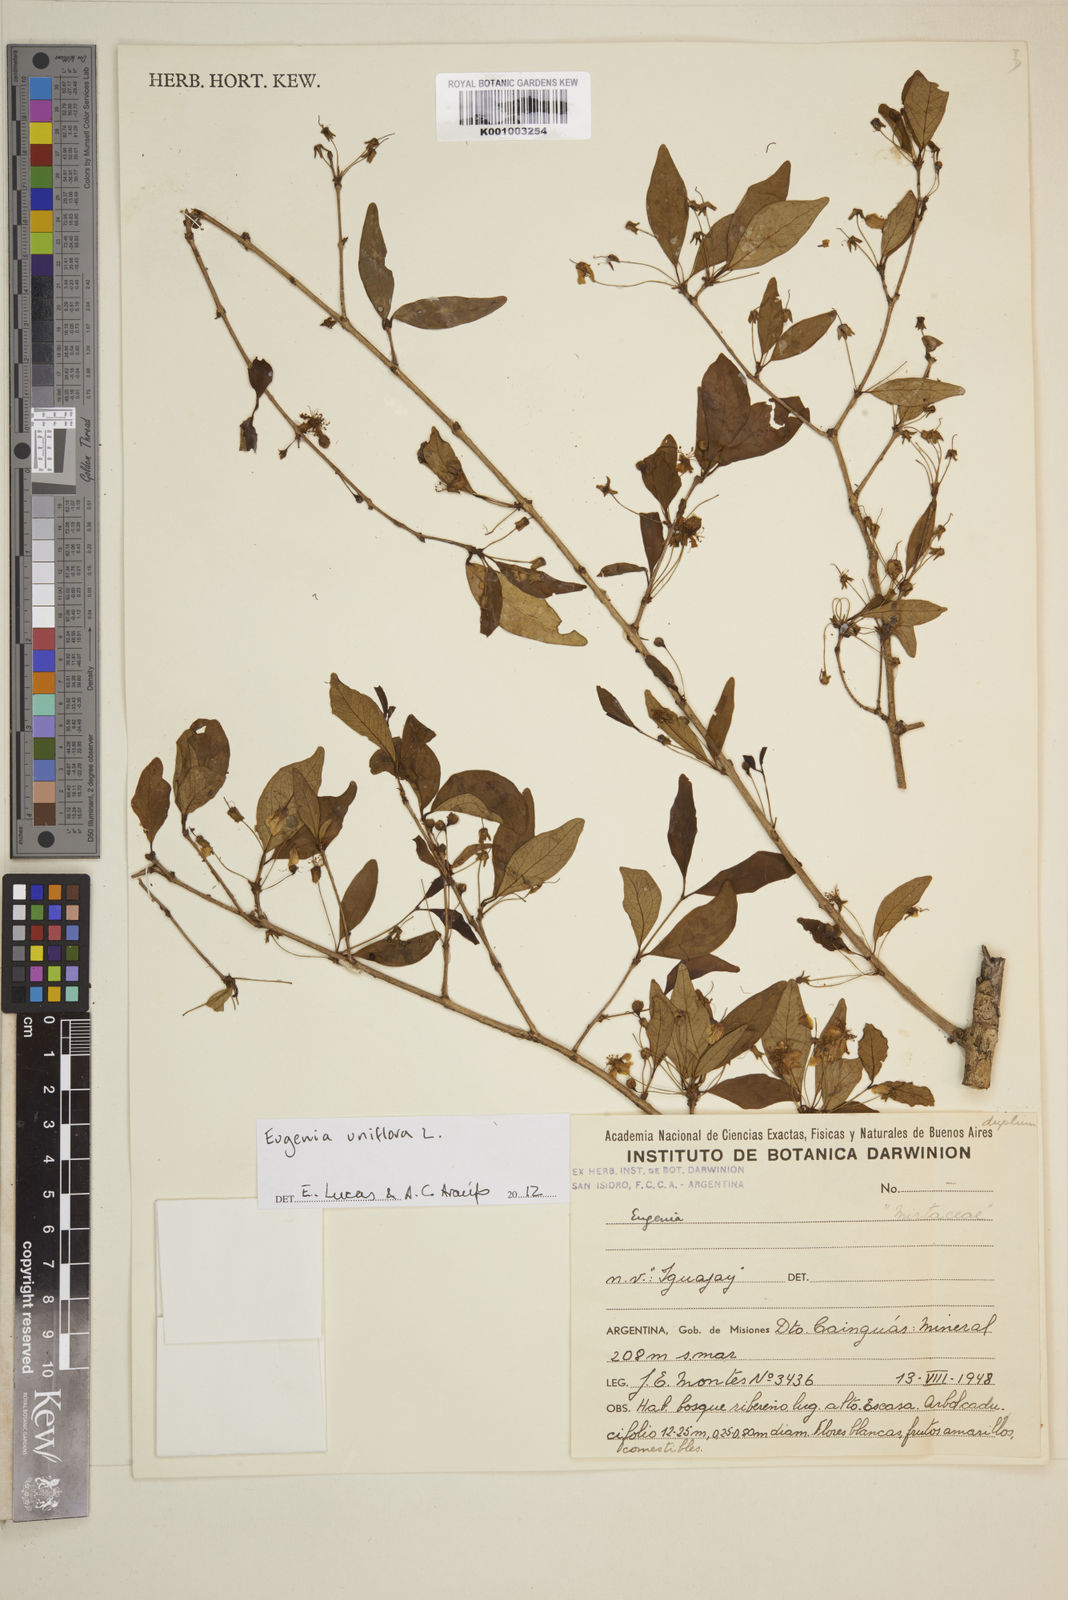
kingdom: Plantae
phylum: Tracheophyta
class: Magnoliopsida
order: Myrtales
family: Myrtaceae
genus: Eugenia
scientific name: Eugenia uniflora
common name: Surinam cherry
